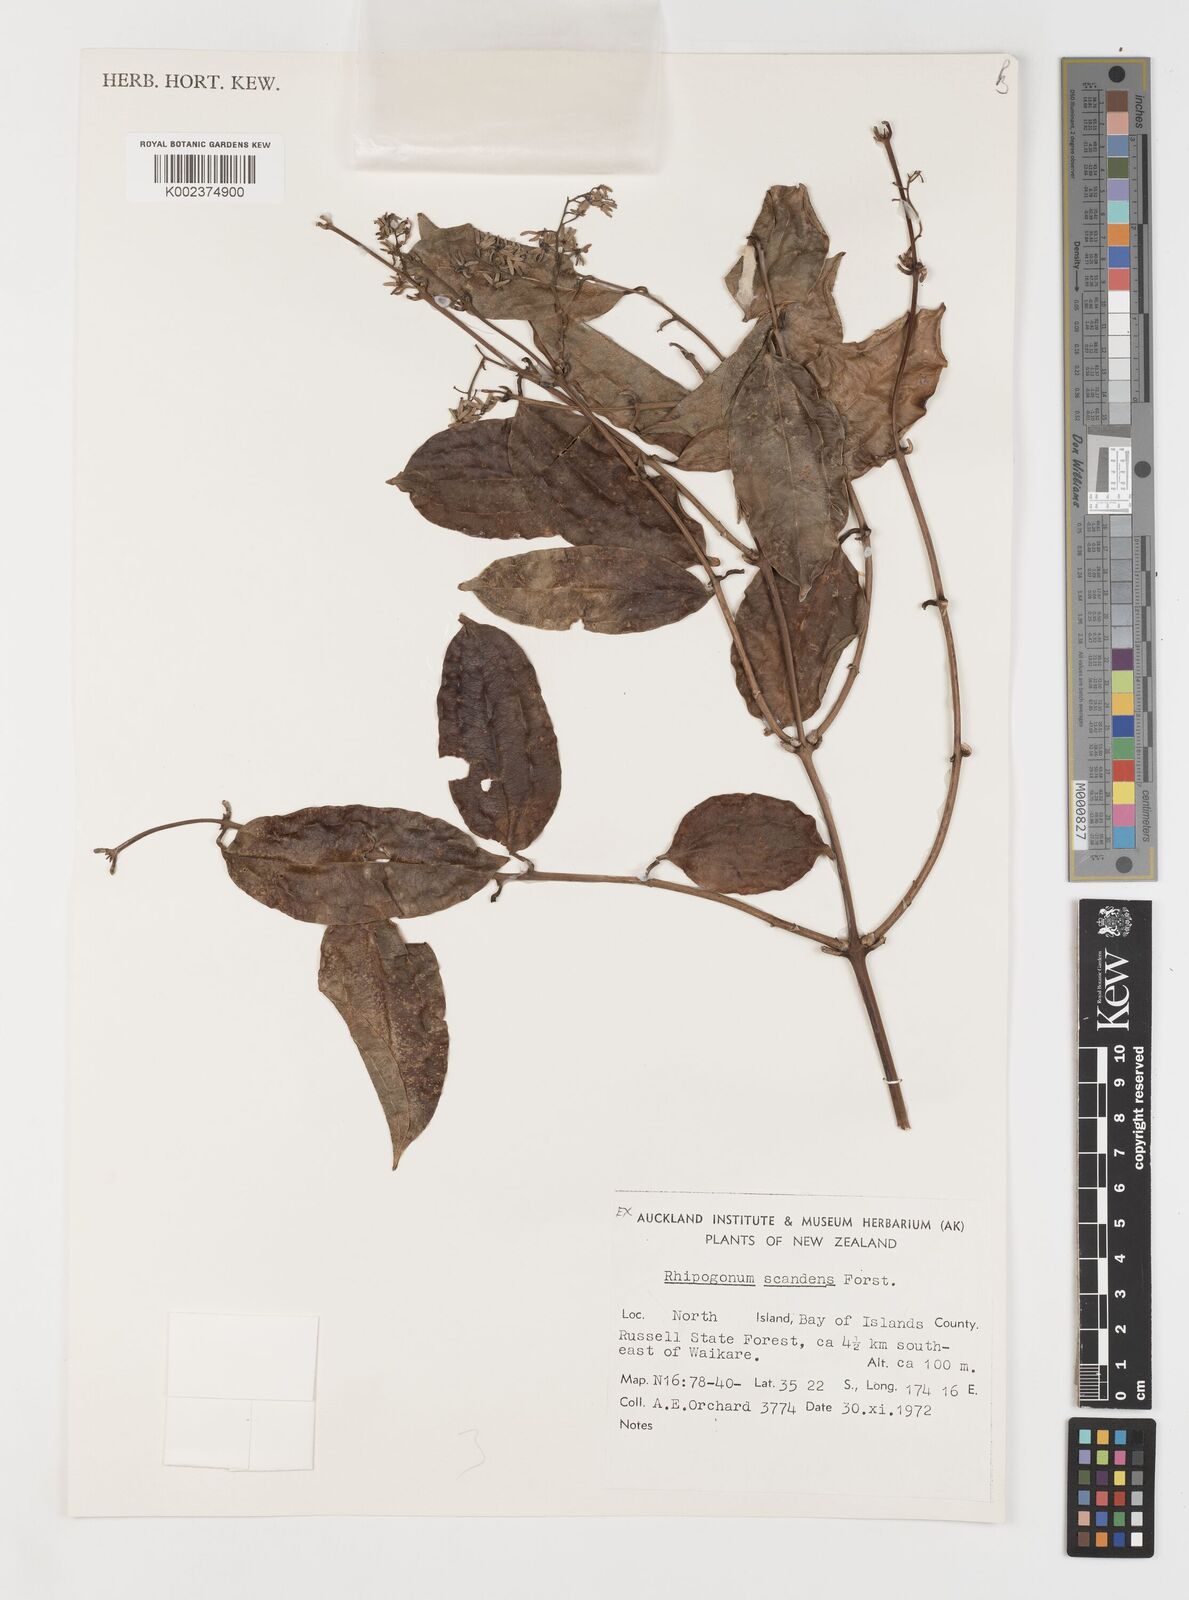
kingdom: Plantae
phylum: Tracheophyta
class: Liliopsida
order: Liliales
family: Ripogonaceae
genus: Ripogonum
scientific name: Ripogonum scandens
